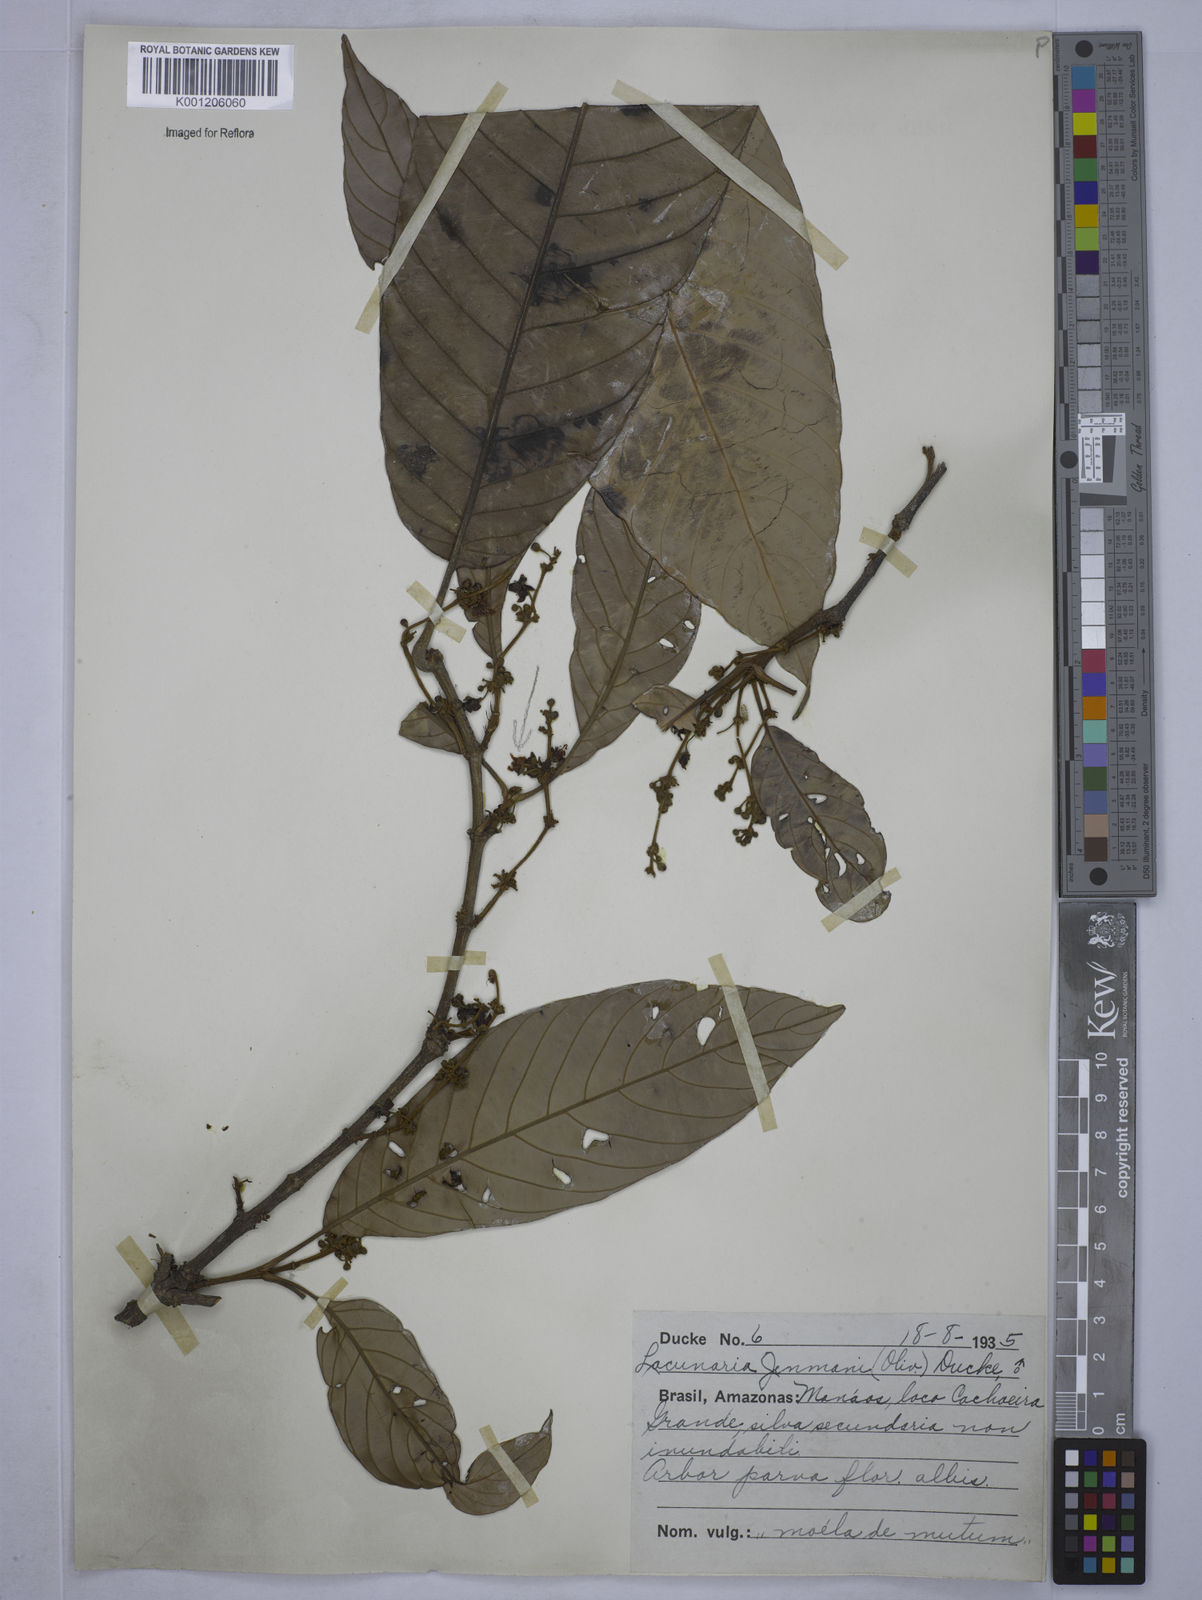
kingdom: Plantae
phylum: Tracheophyta
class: Magnoliopsida
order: Malpighiales
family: Quiinaceae
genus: Lacunaria
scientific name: Lacunaria jenmanii
